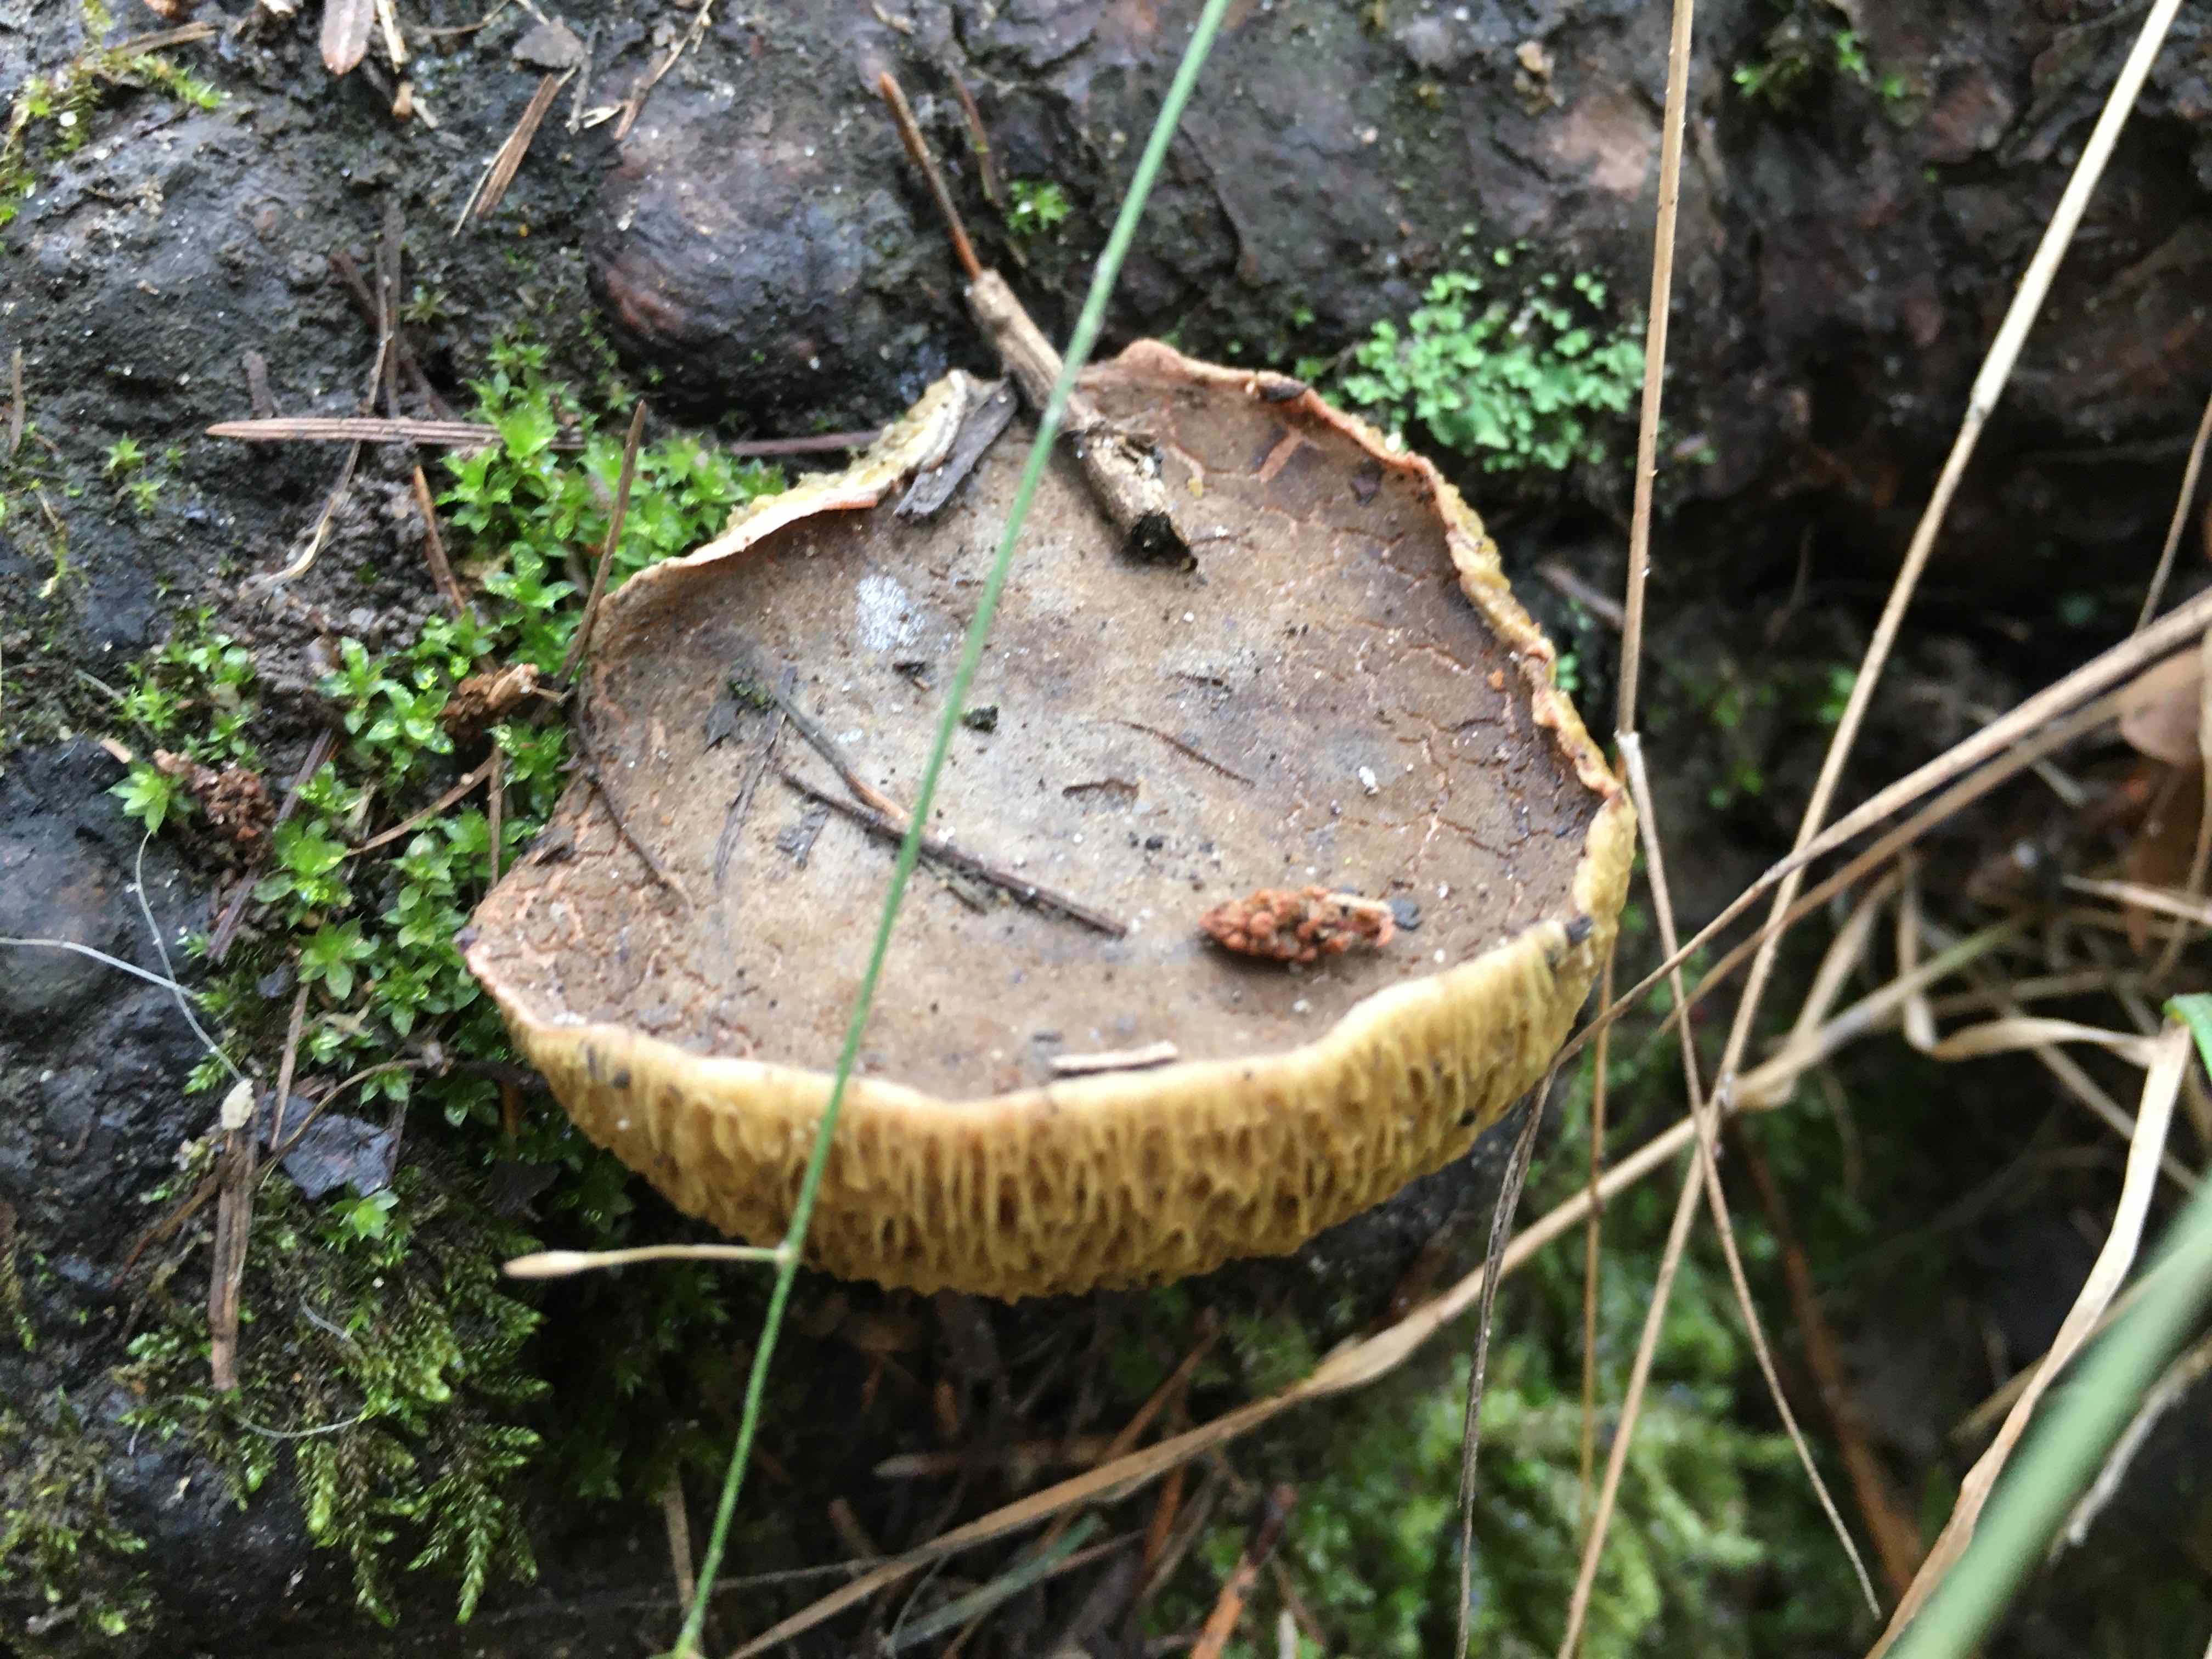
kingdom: Fungi
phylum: Basidiomycota
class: Agaricomycetes
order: Boletales
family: Boletaceae
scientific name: Boletaceae
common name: rørhatfamilien
